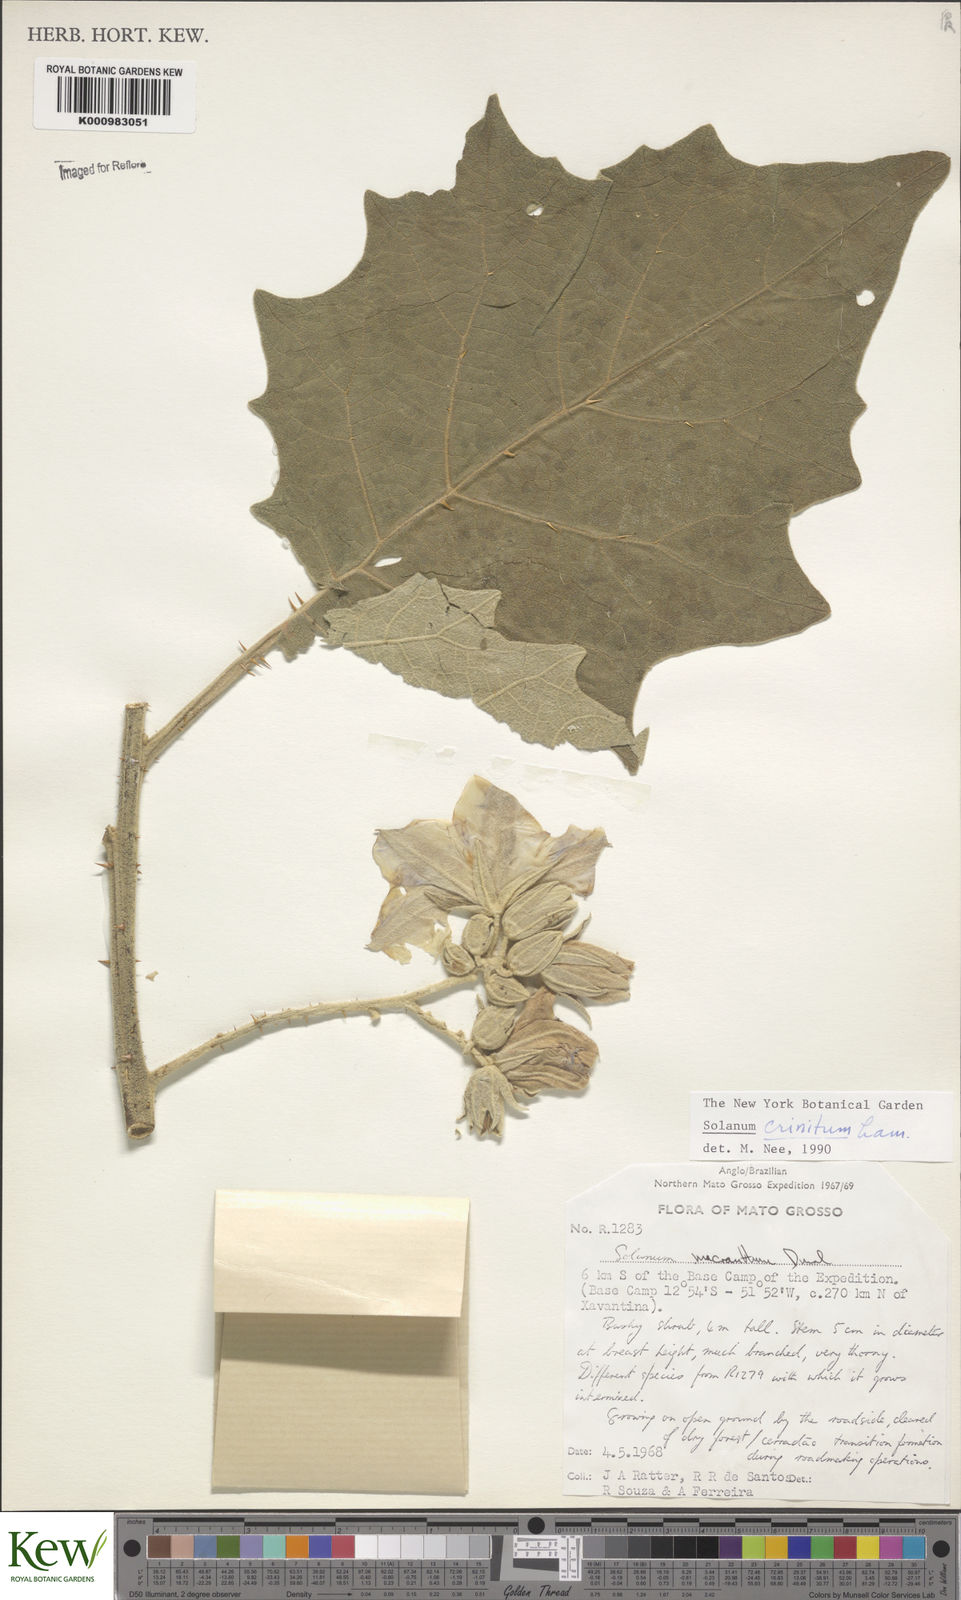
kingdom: Plantae
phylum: Tracheophyta
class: Magnoliopsida
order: Solanales
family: Solanaceae
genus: Solanum
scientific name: Solanum crinitum
